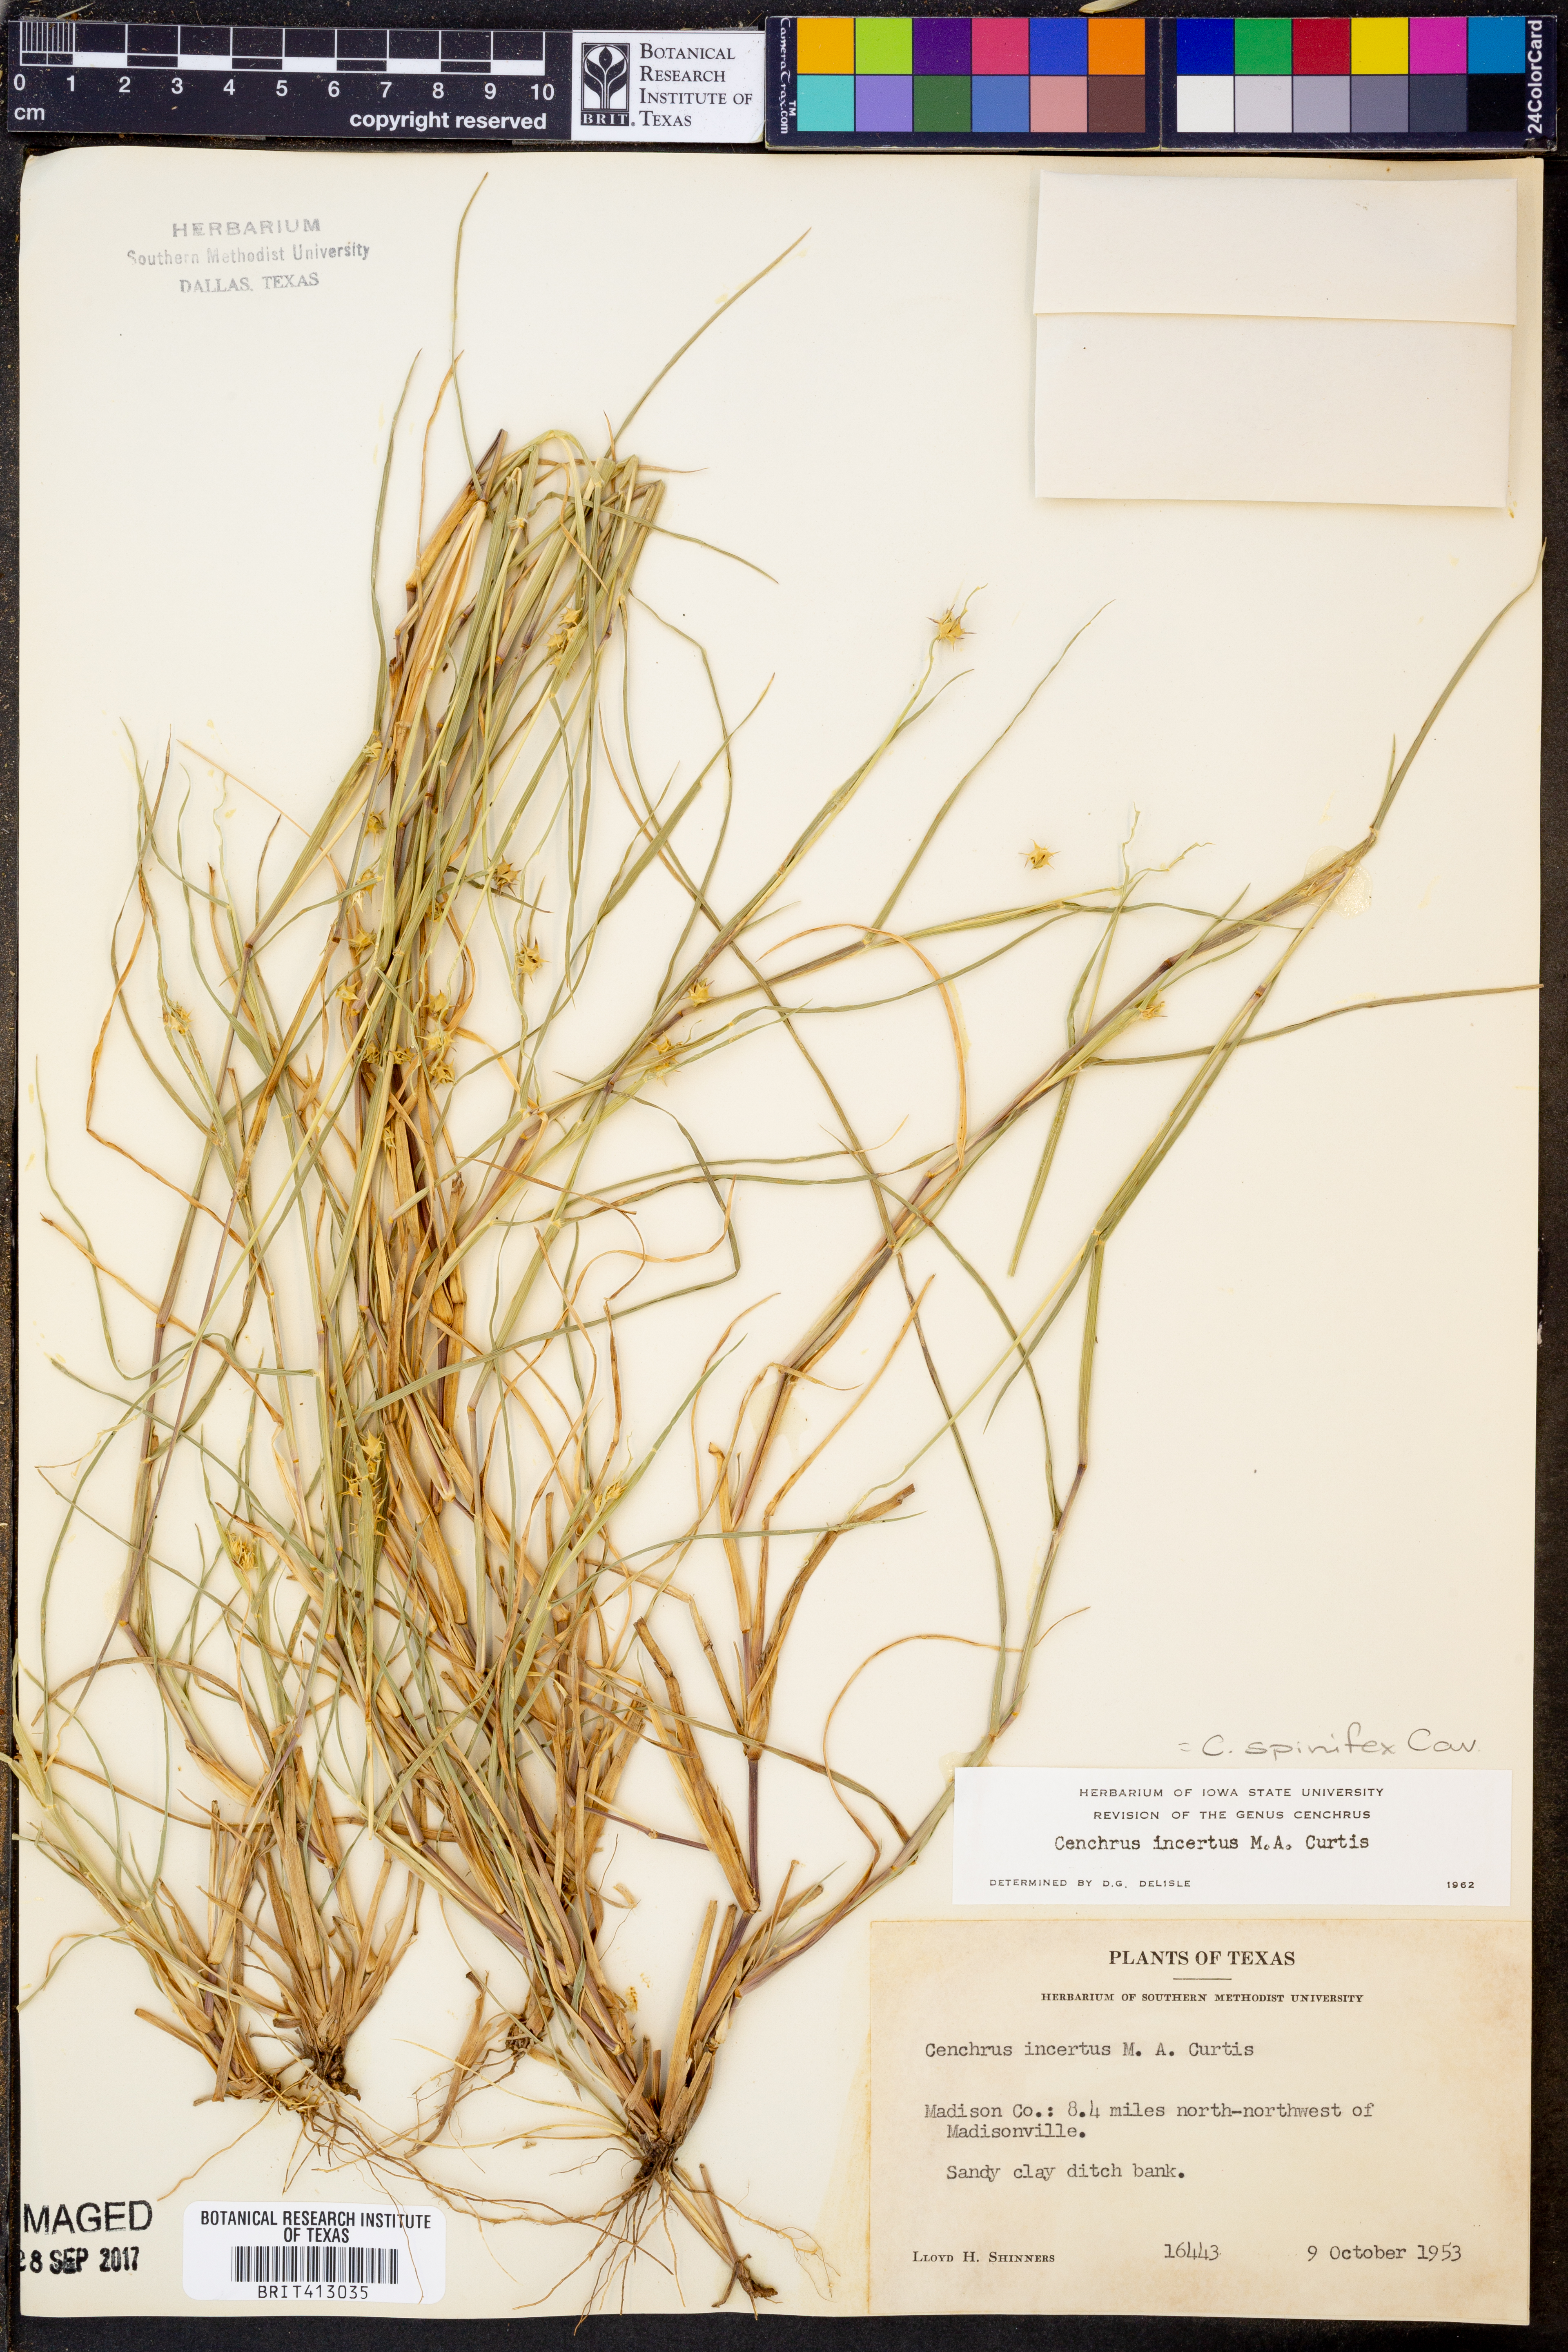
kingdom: Plantae
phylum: Tracheophyta
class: Liliopsida
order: Poales
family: Poaceae
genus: Cenchrus
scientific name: Cenchrus spinifex
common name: Coast sandbur
